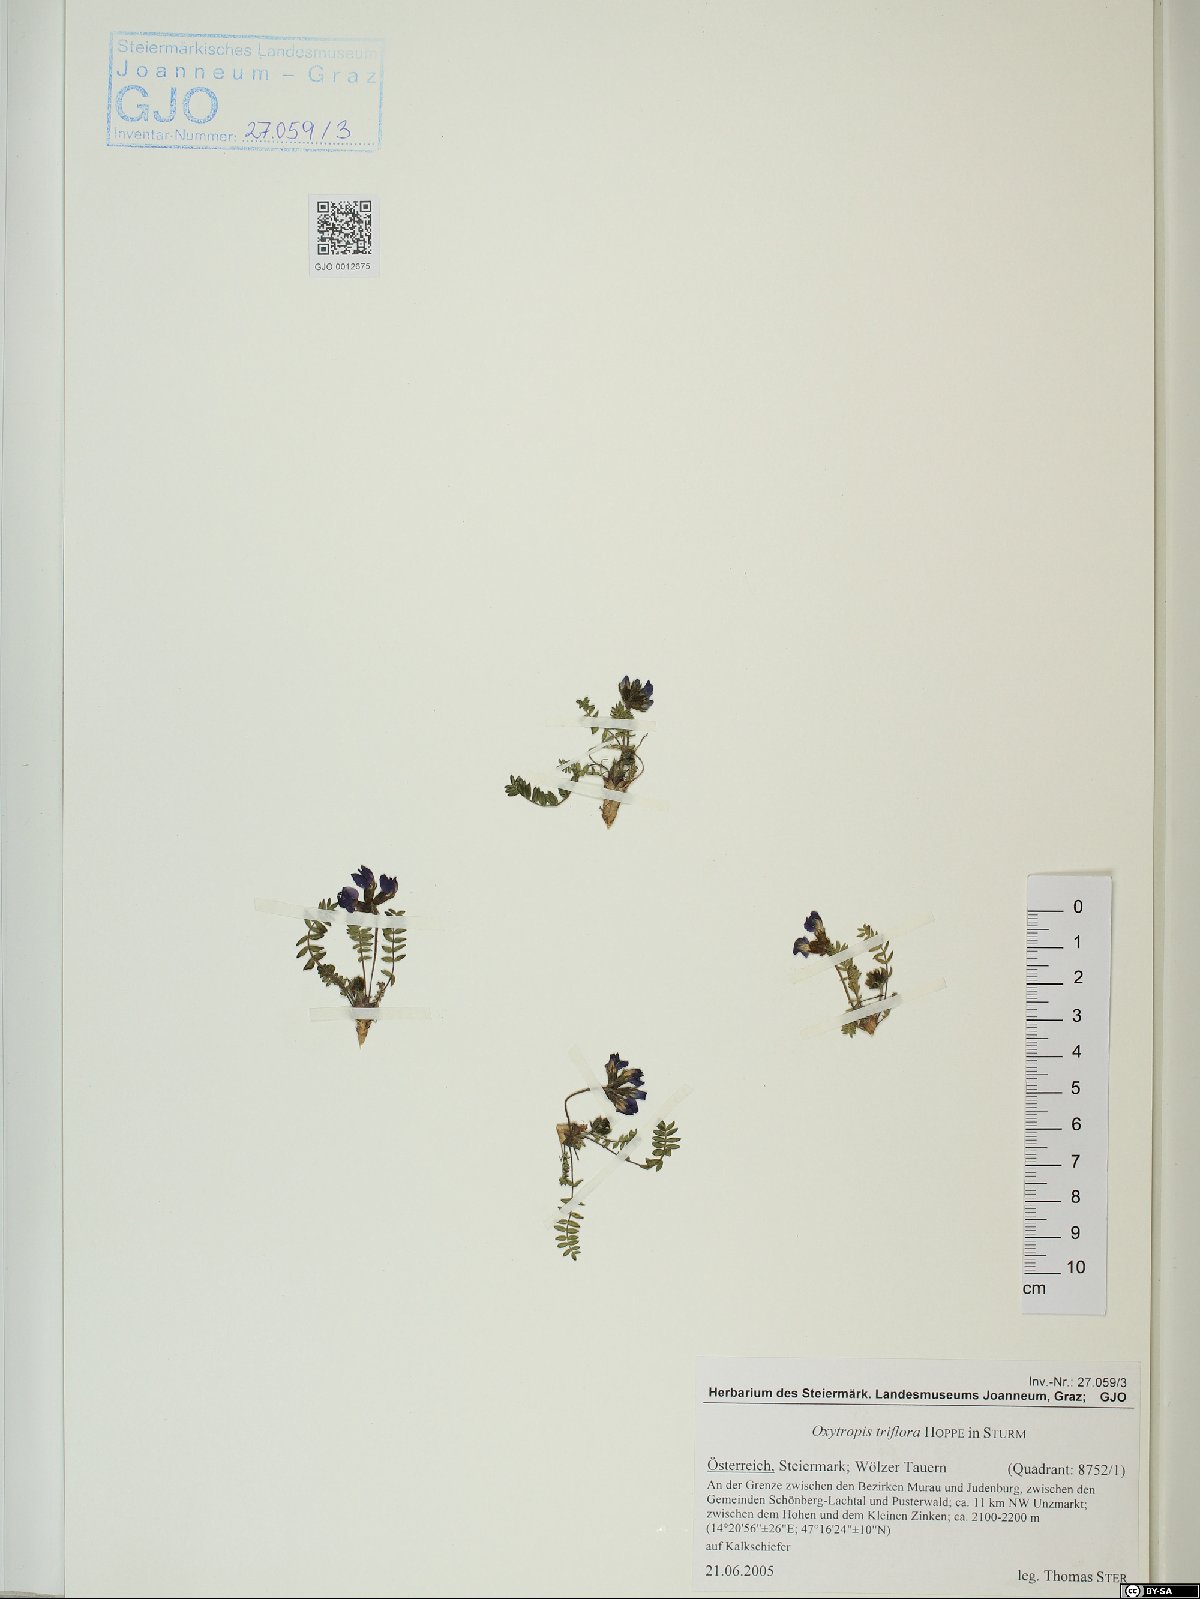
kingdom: Plantae
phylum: Tracheophyta
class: Magnoliopsida
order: Fabales
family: Fabaceae
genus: Oxytropis
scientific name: Oxytropis triflora
